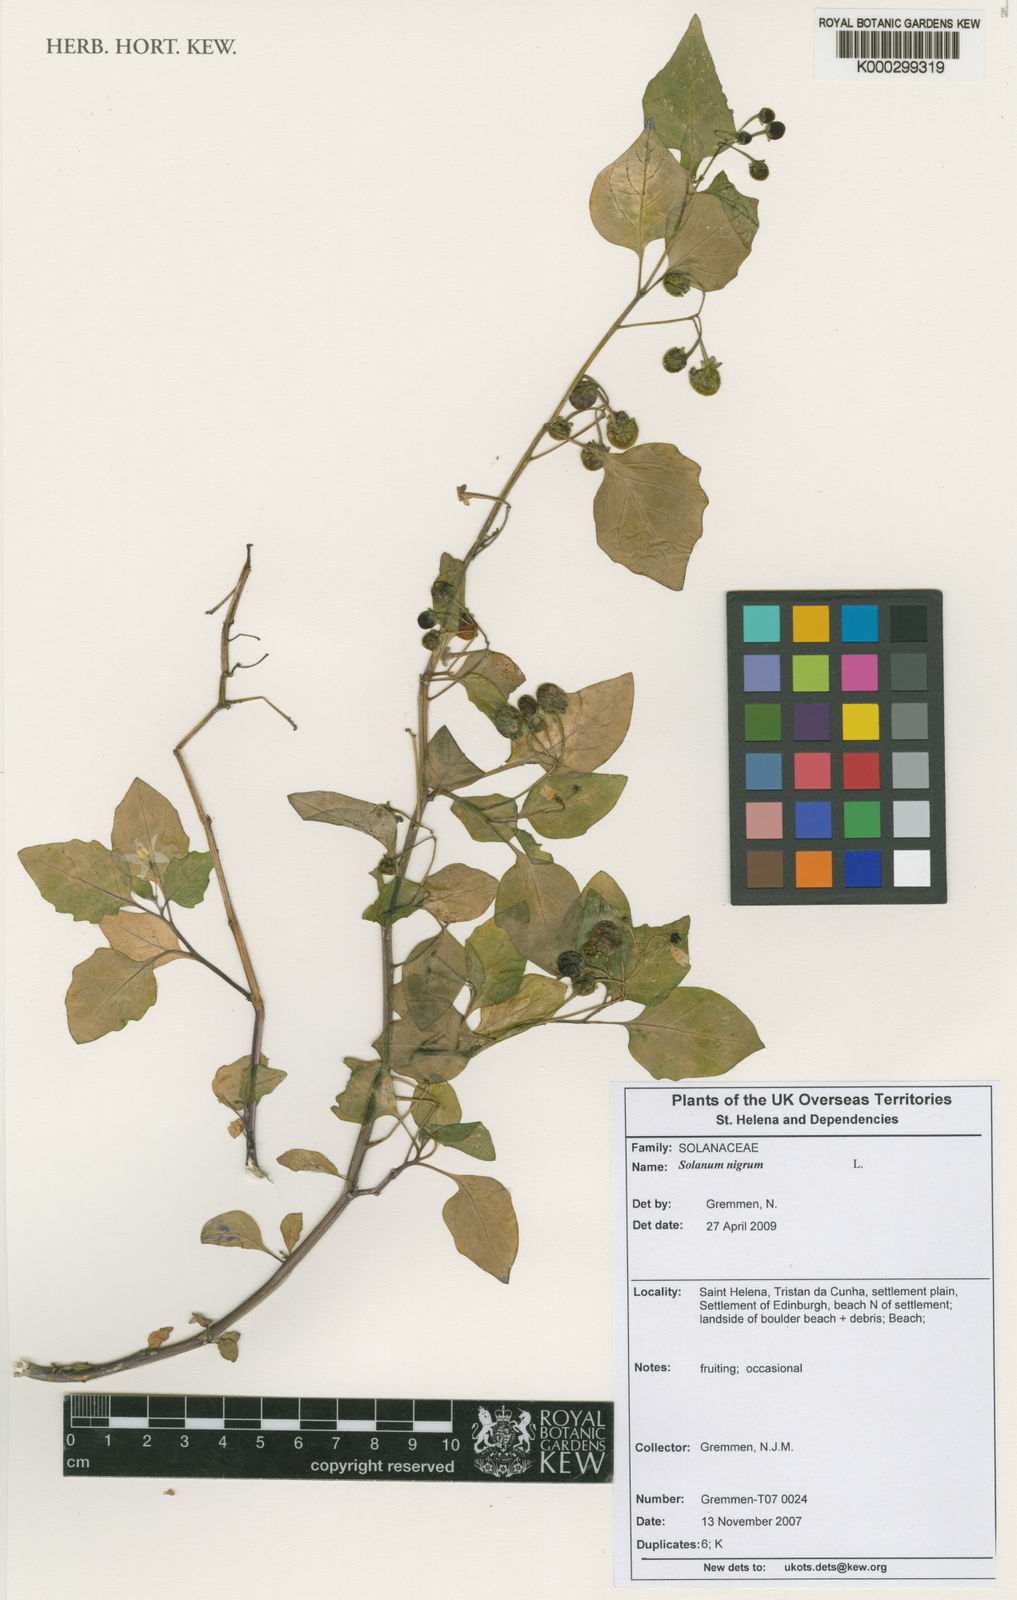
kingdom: Plantae
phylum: Tracheophyta
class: Magnoliopsida
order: Solanales
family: Solanaceae
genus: Solanum
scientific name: Solanum villosum
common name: Red nightshade
